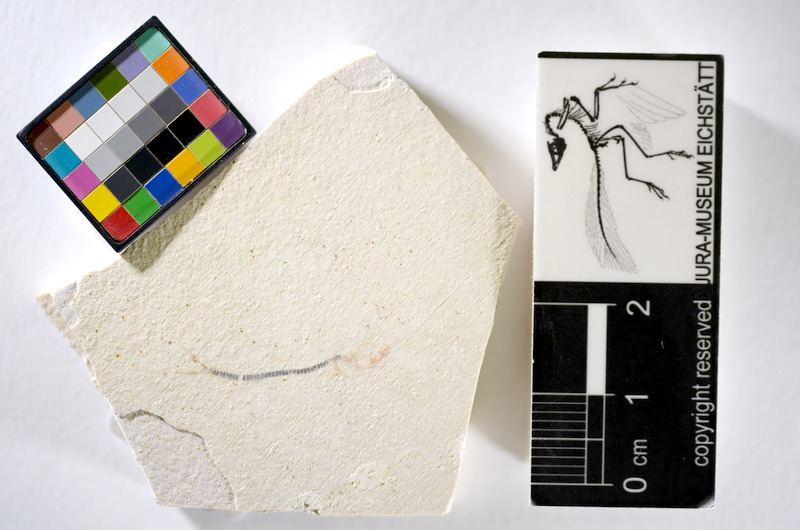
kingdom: Animalia
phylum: Chordata
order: Salmoniformes
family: Orthogonikleithridae
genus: Orthogonikleithrus
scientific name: Orthogonikleithrus hoelli
